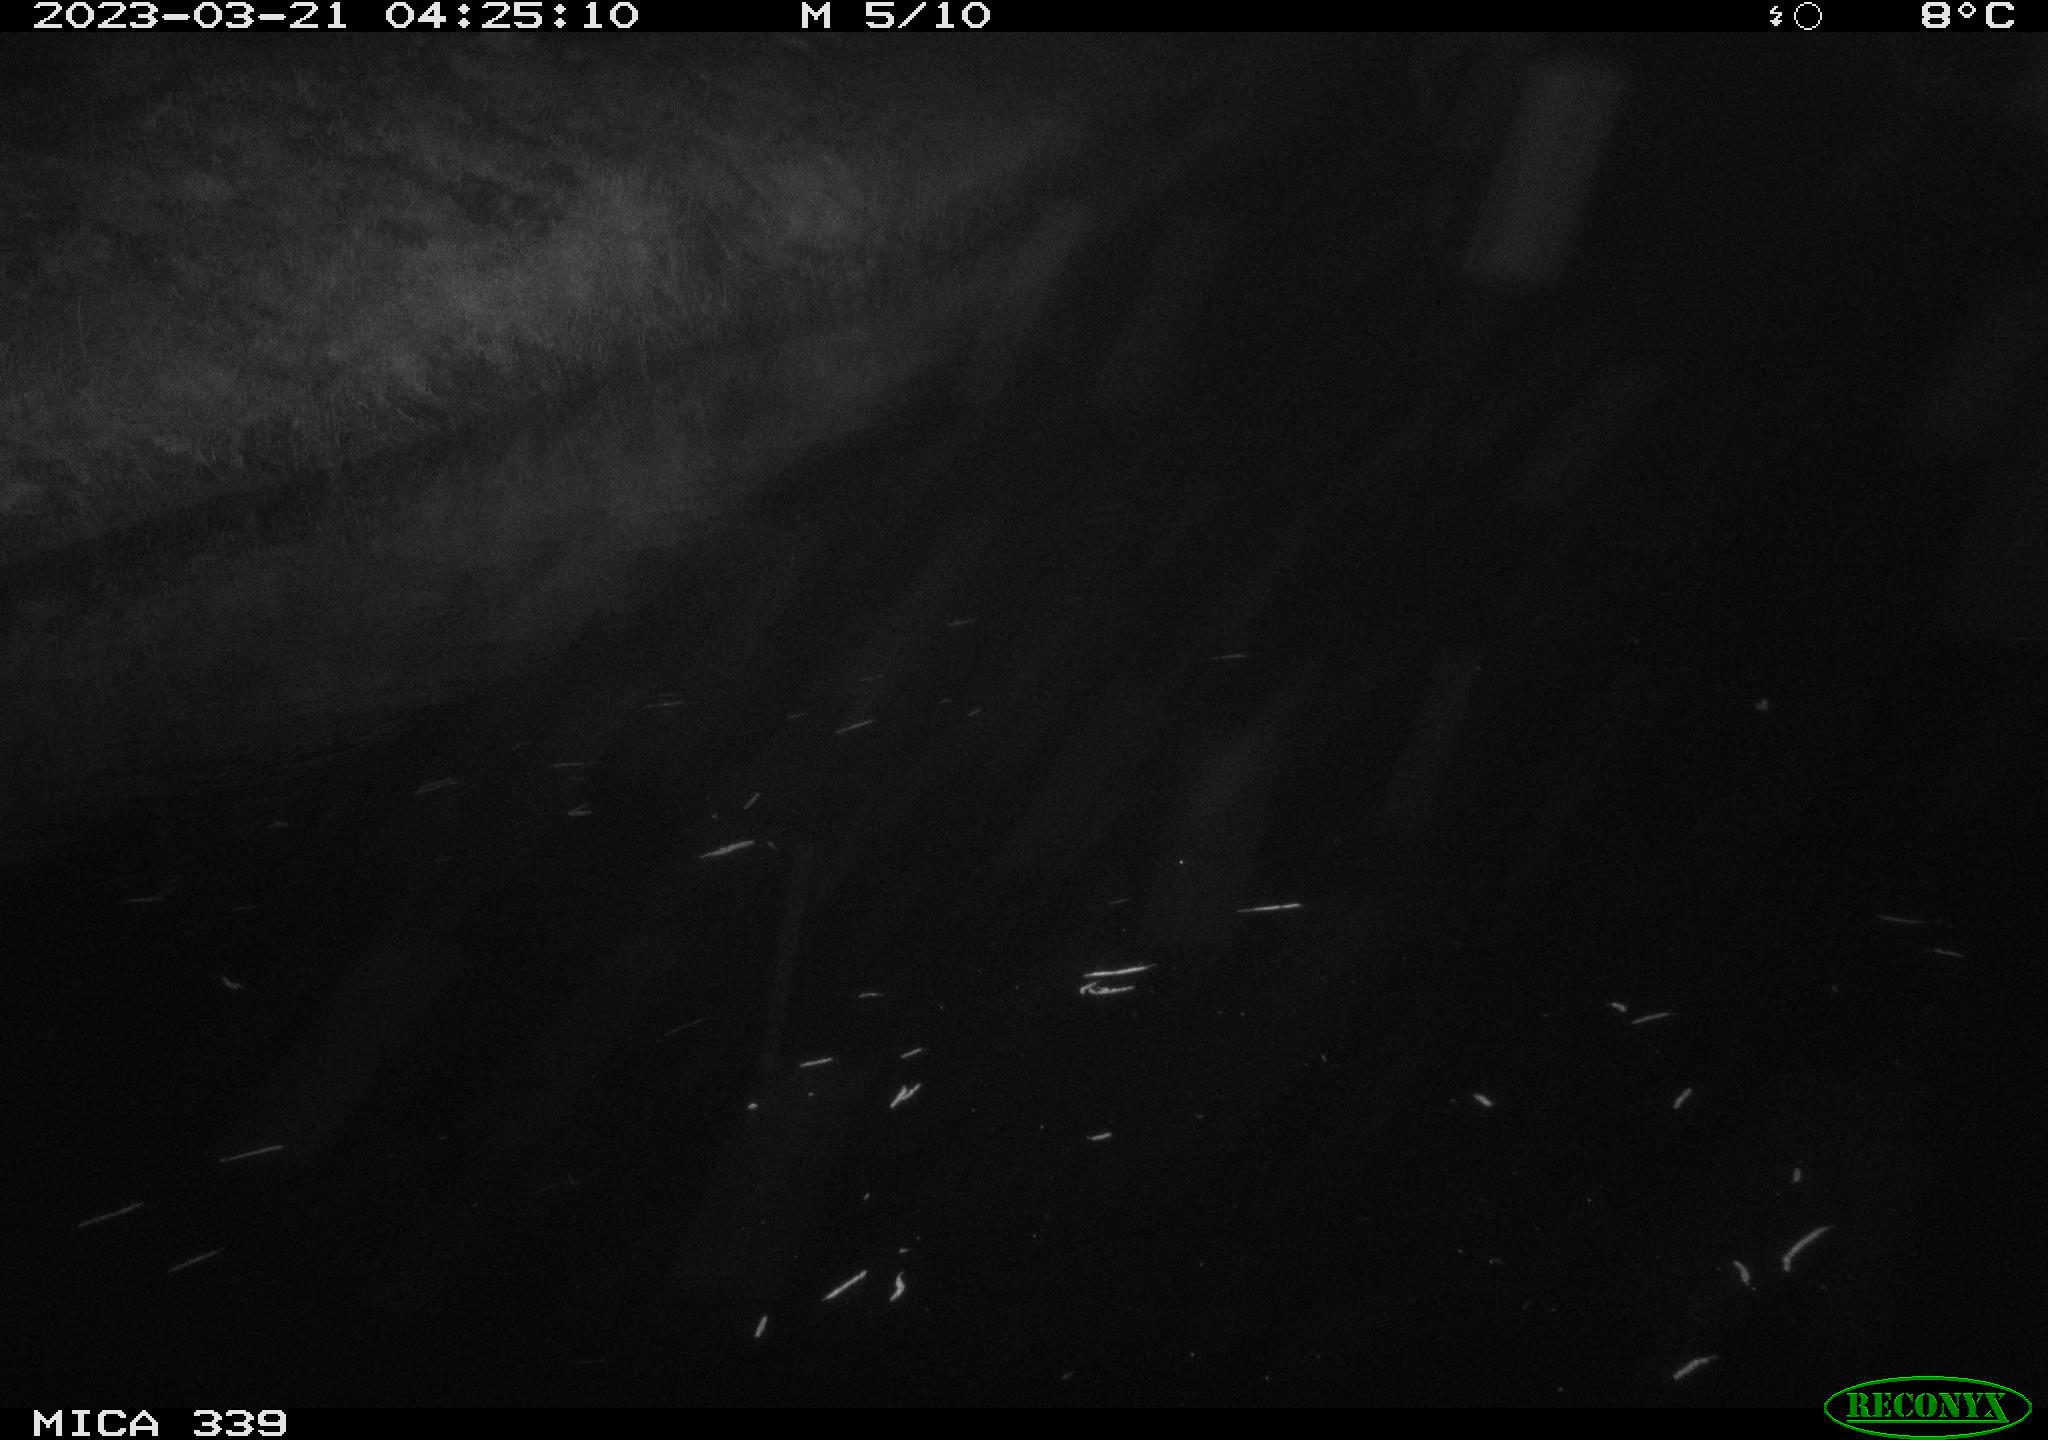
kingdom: Animalia
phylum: Chordata
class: Aves
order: Pelecaniformes
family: Ardeidae
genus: Ardea
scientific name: Ardea cinerea
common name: Grey heron
